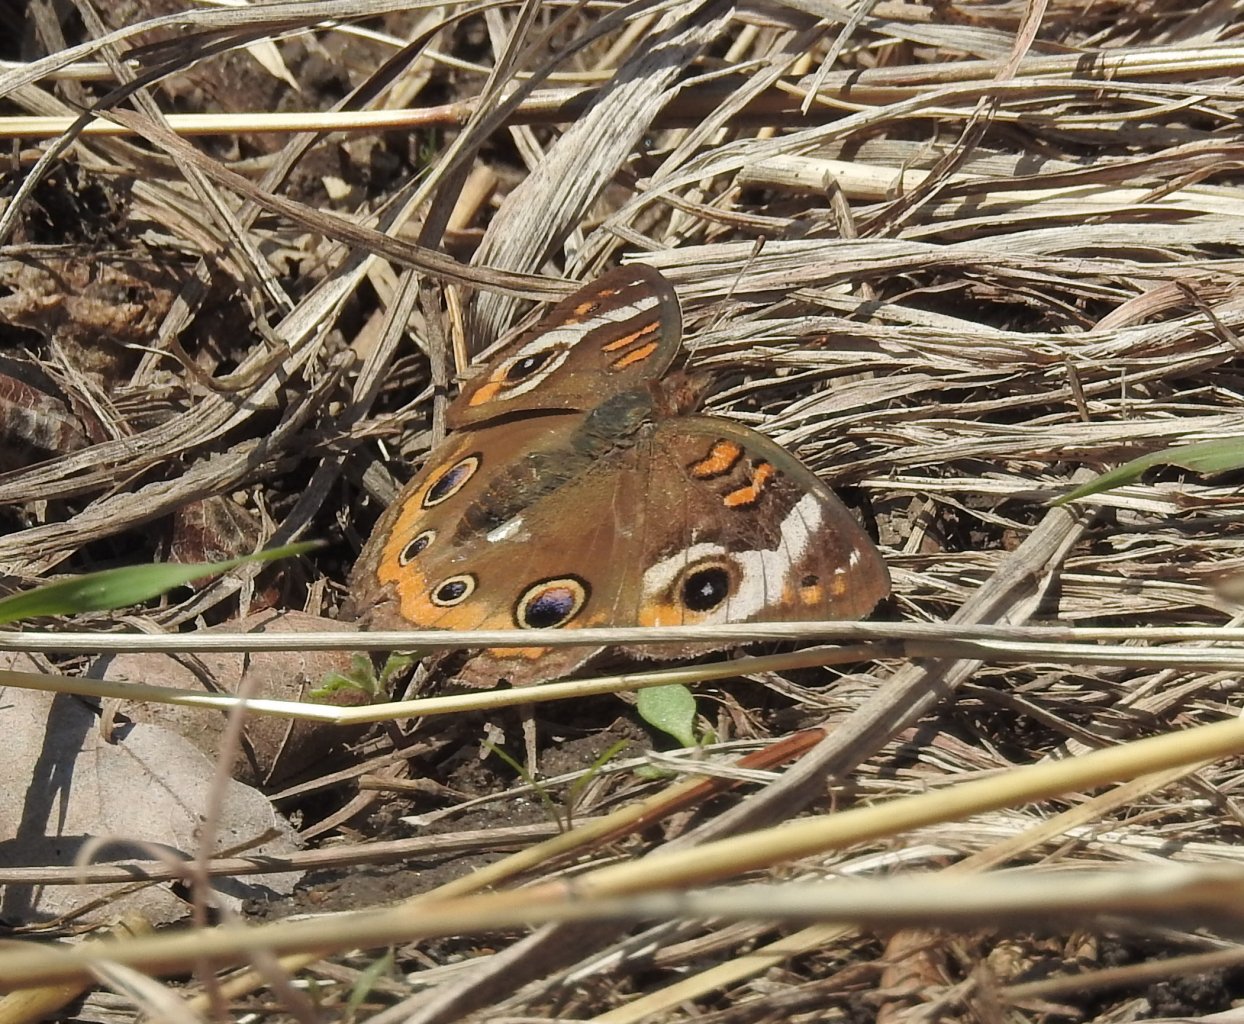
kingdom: Animalia
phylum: Arthropoda
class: Insecta
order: Lepidoptera
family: Nymphalidae
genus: Junonia
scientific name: Junonia coenia
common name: Common Buckeye
